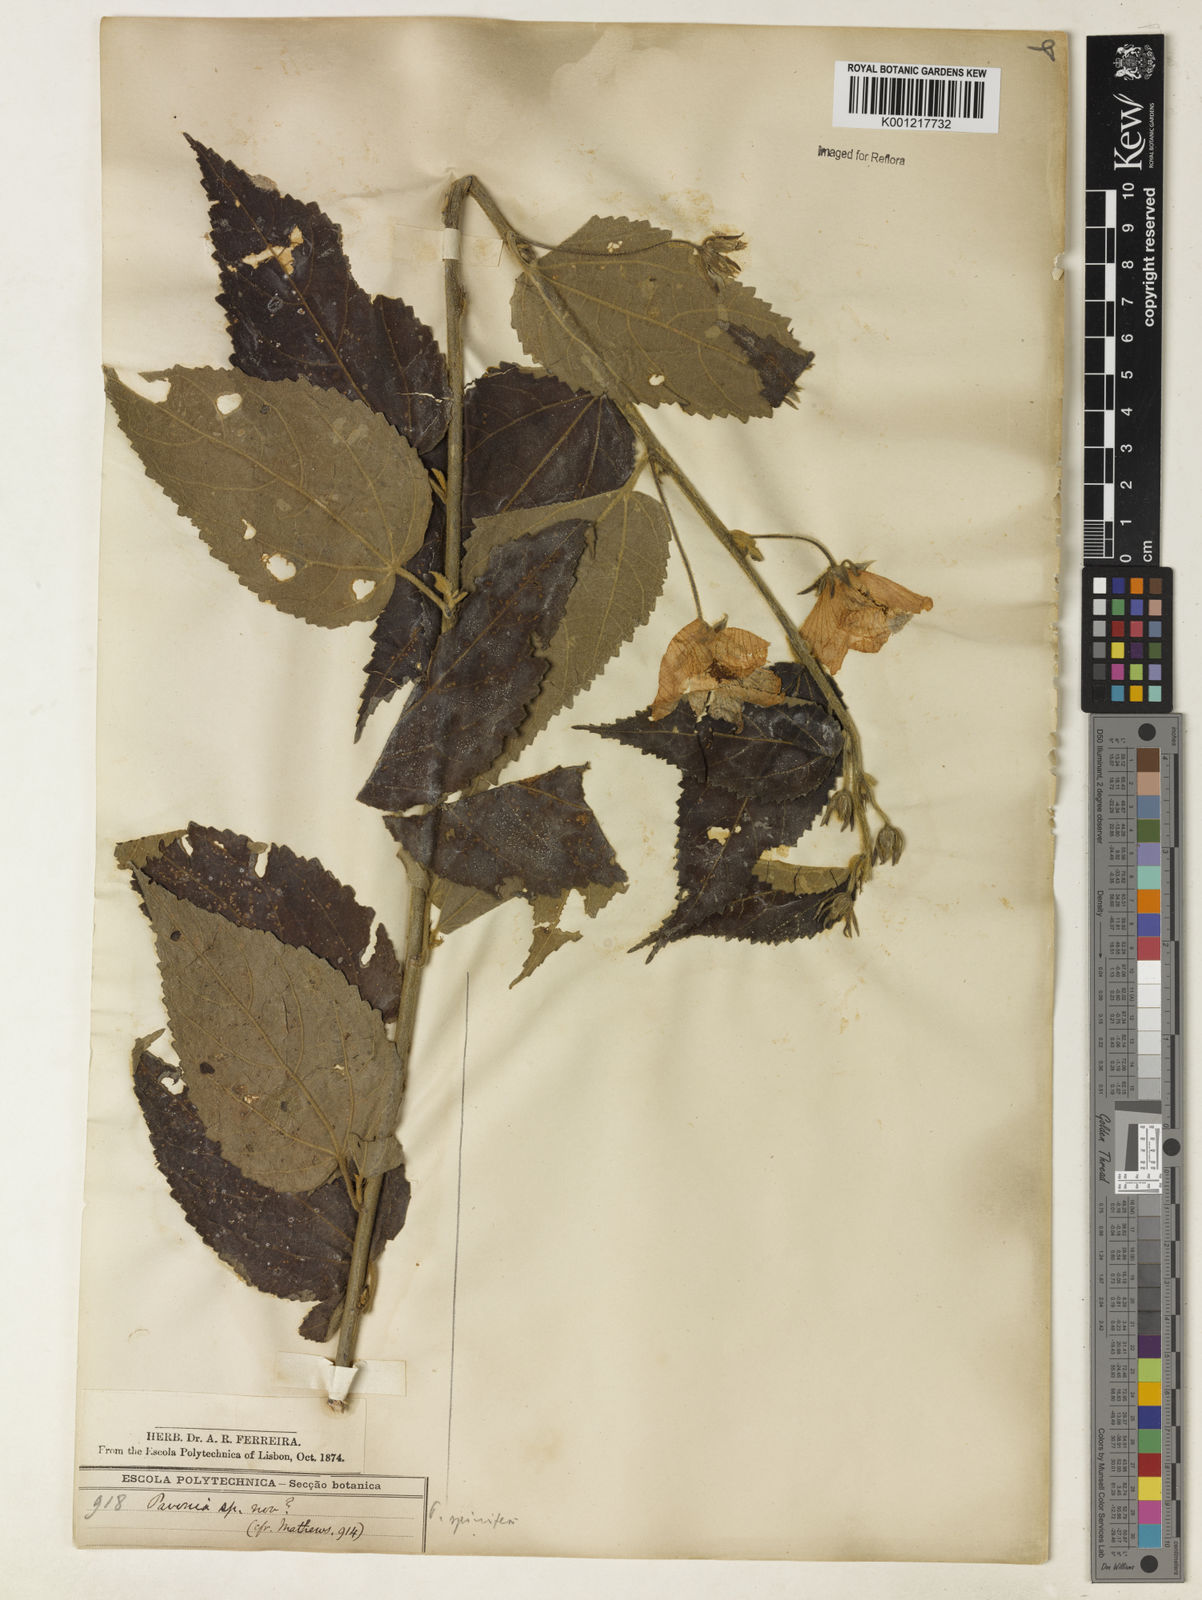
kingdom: Plantae
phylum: Tracheophyta
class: Magnoliopsida
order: Malvales
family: Malvaceae
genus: Pavonia
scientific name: Pavonia spinifex
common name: Ginger bush
